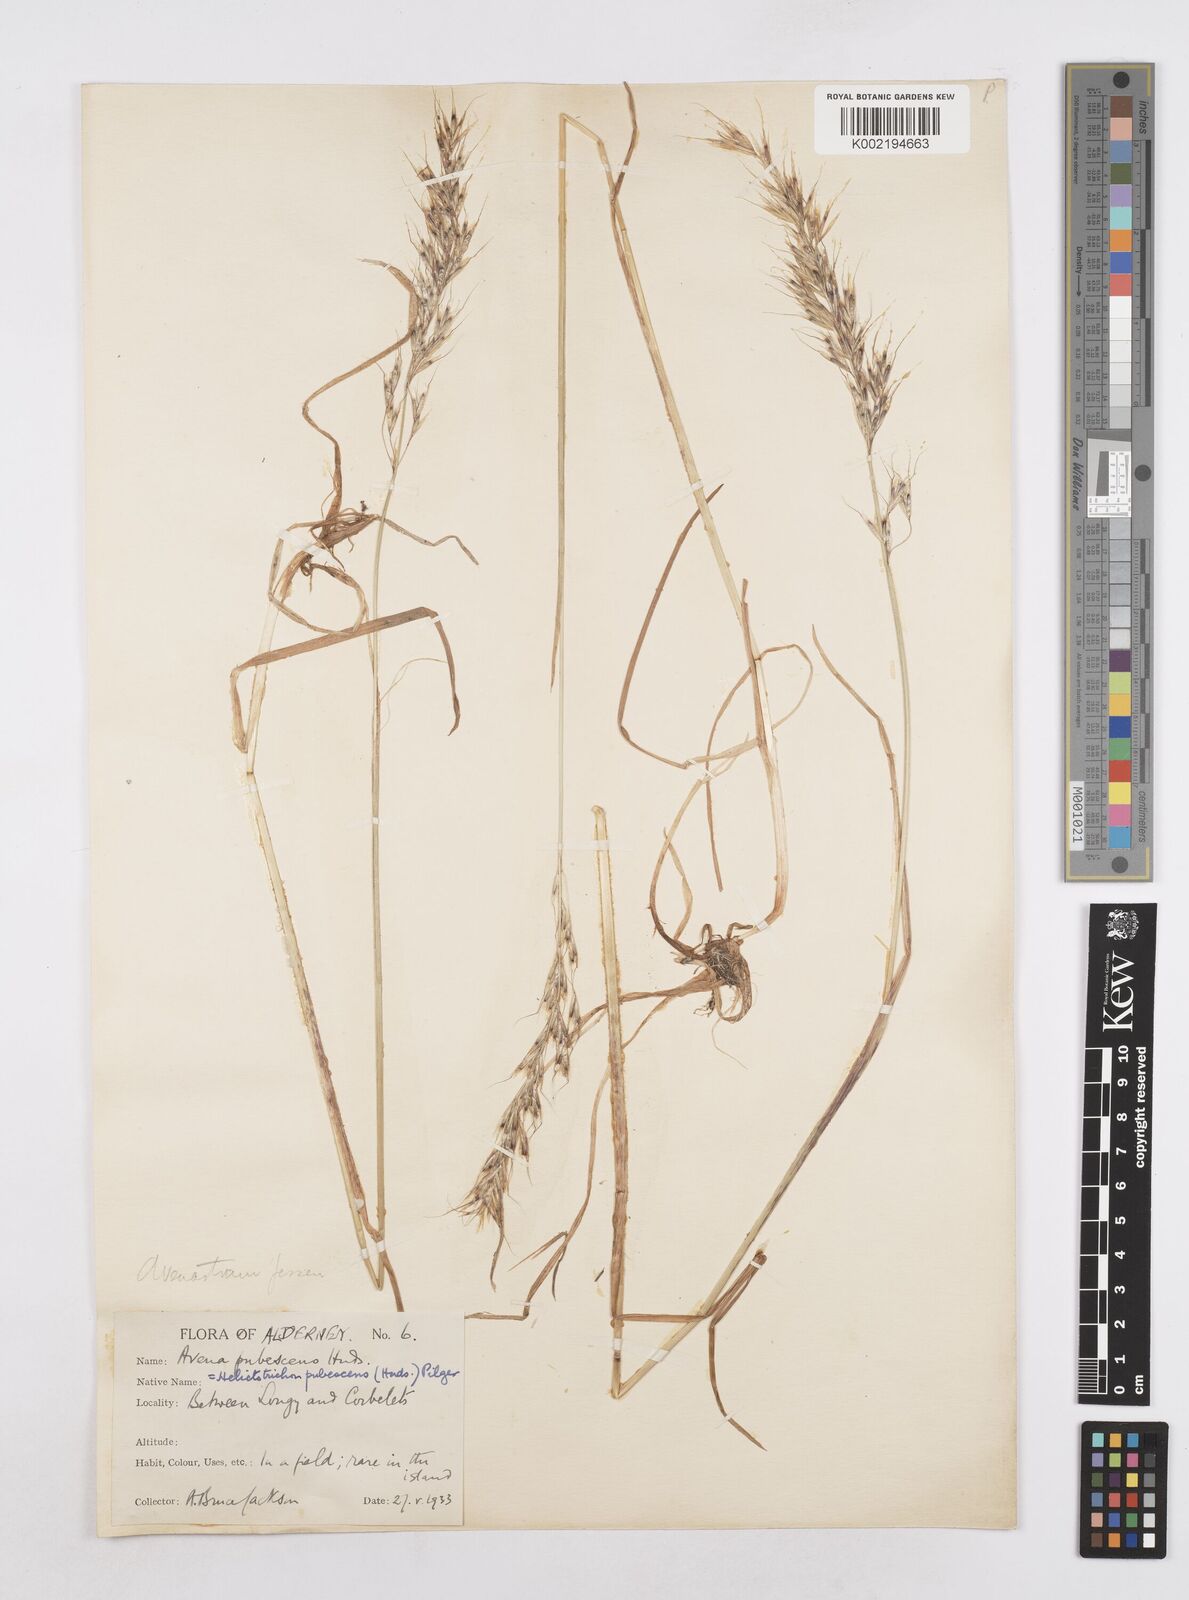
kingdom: Plantae
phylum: Tracheophyta
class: Liliopsida
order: Poales
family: Poaceae
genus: Avenula
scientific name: Avenula pubescens
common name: Downy alpine oatgrass
